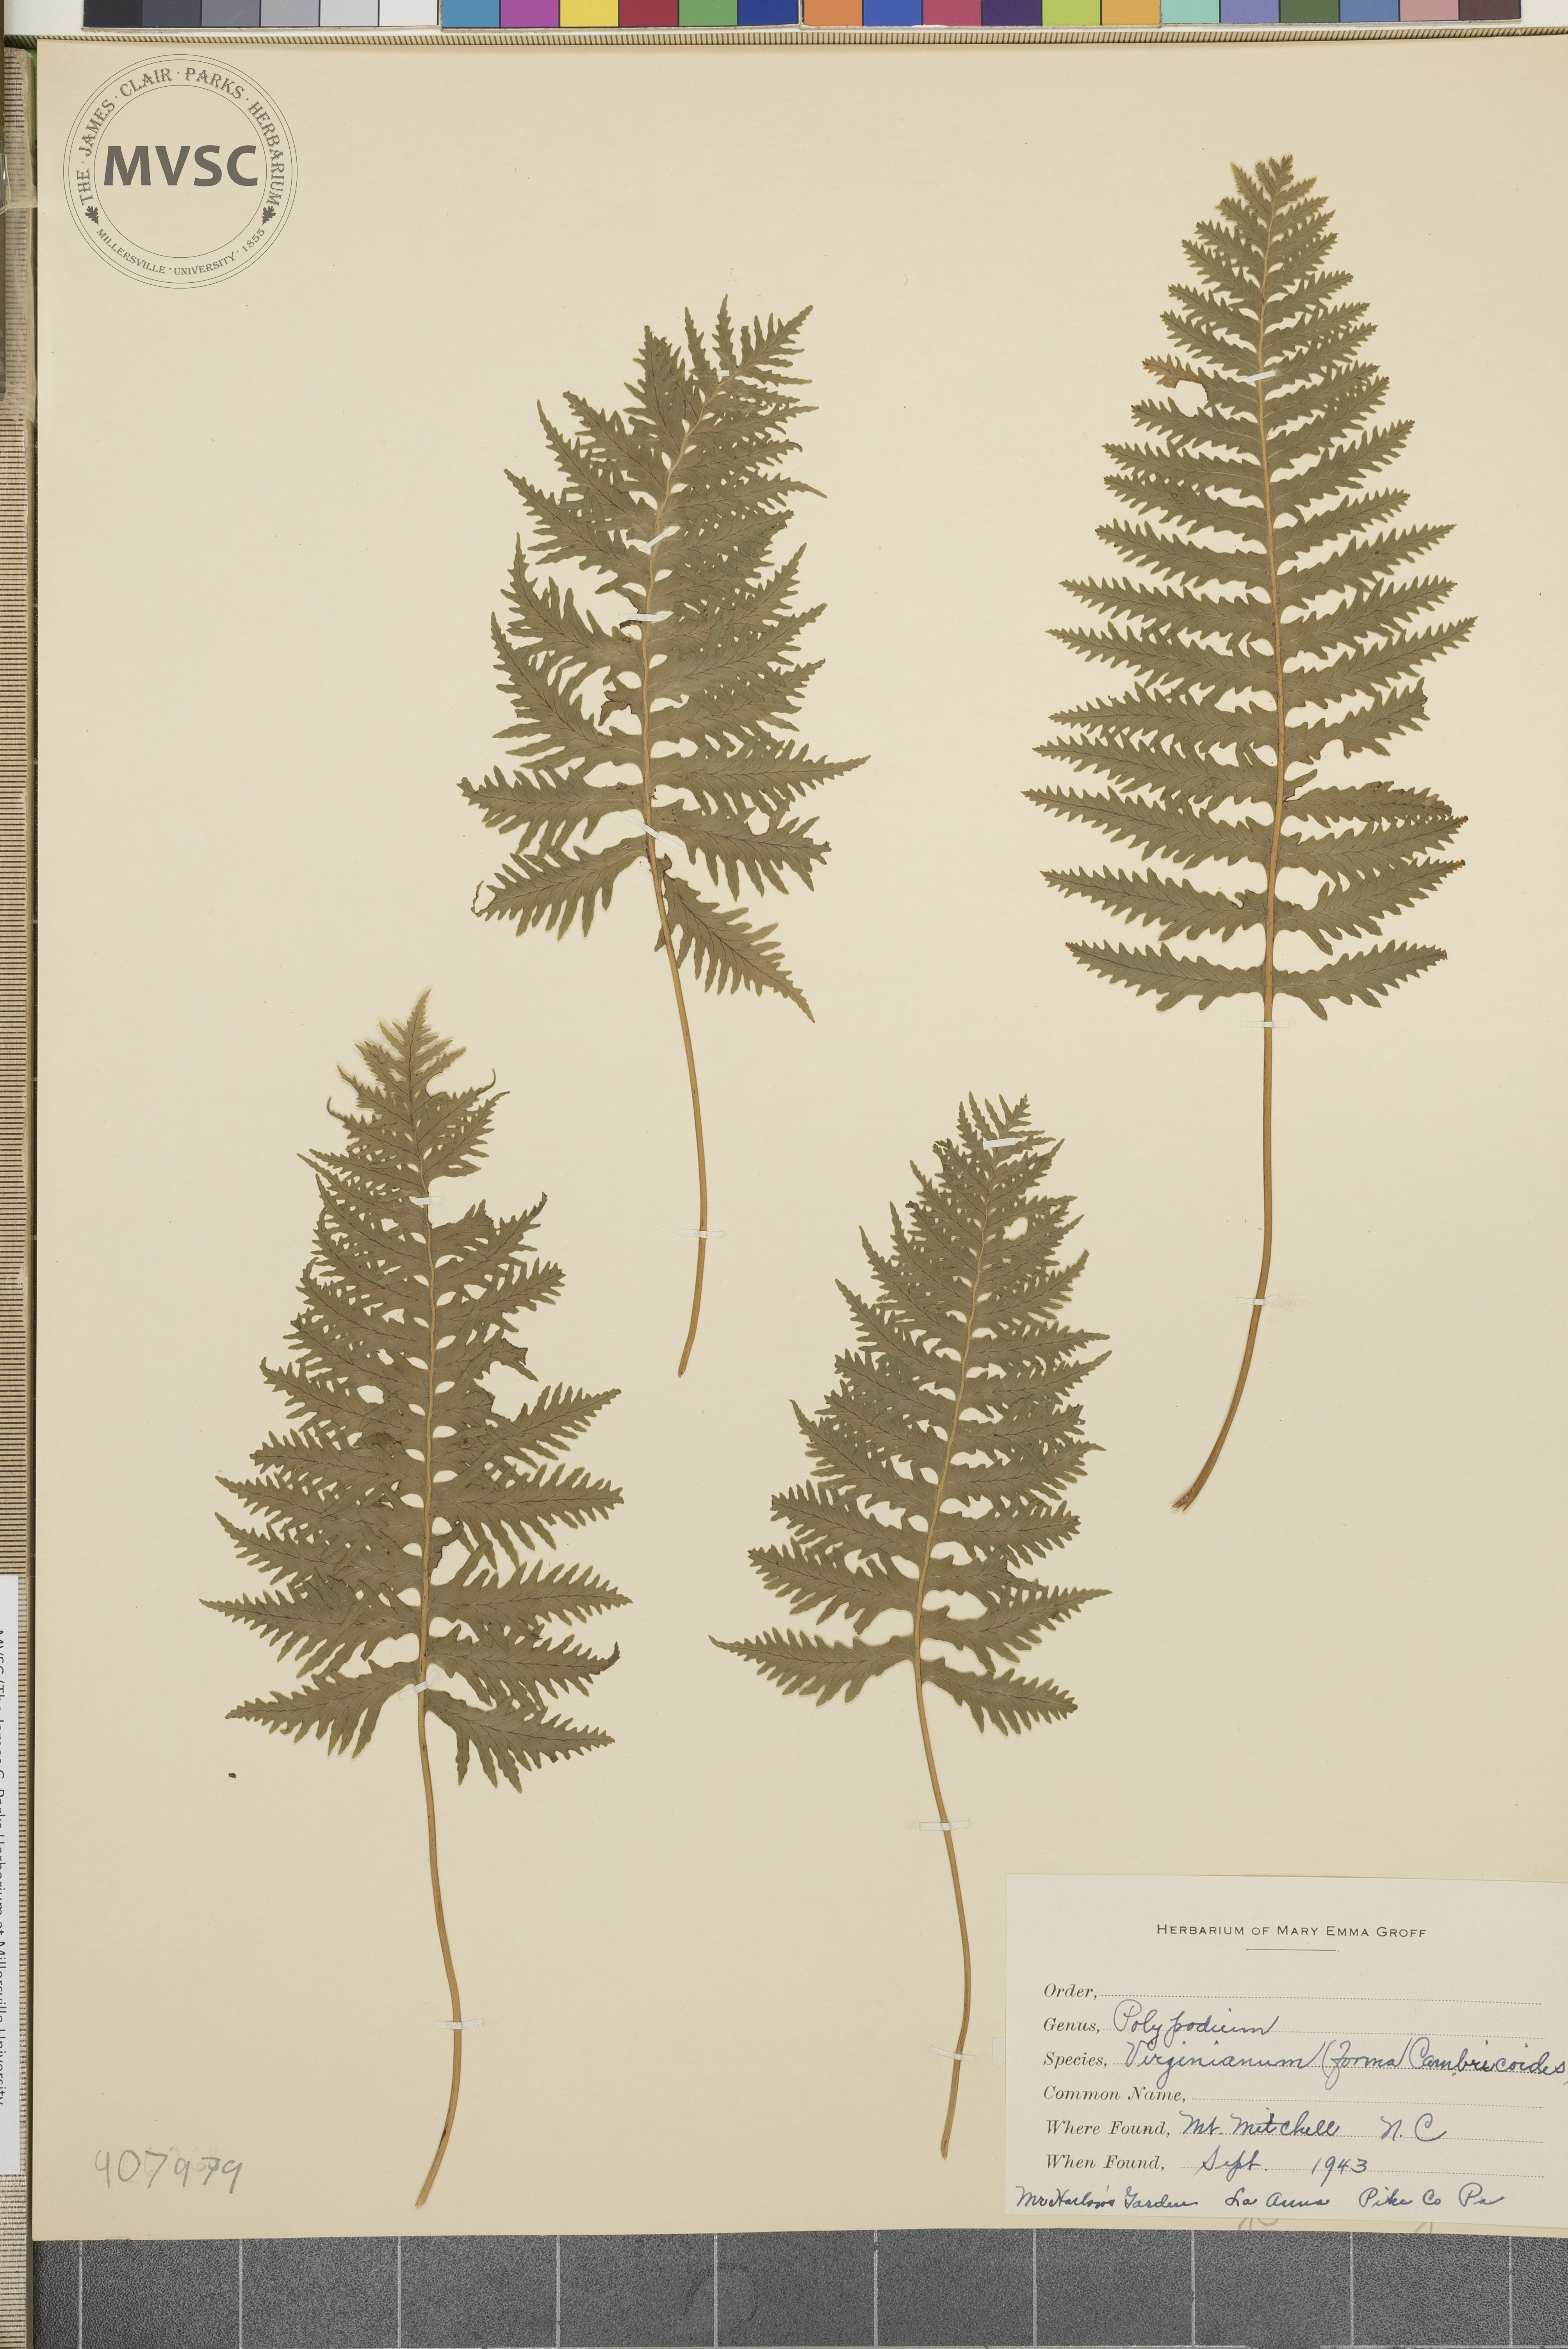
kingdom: Plantae
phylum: Tracheophyta
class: Polypodiopsida
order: Polypodiales
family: Polypodiaceae
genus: Polypodium
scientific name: Polypodium virginianum
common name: American wall fern
